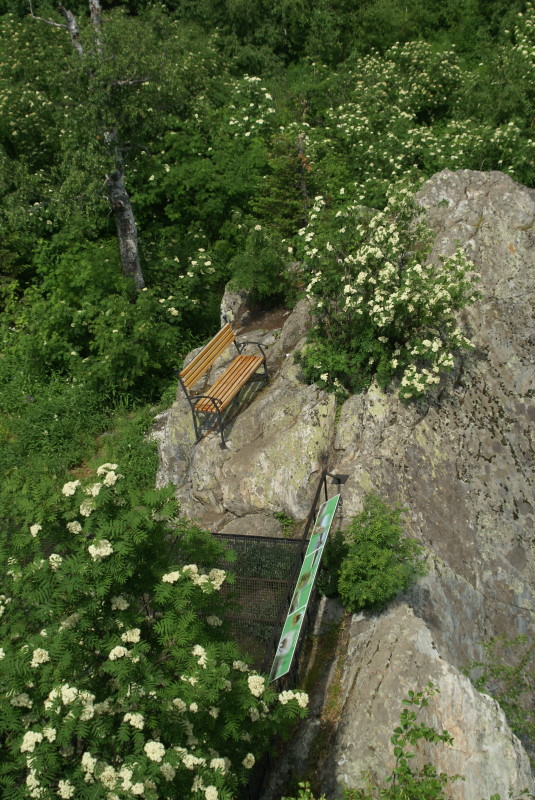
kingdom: Plantae
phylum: Tracheophyta
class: Magnoliopsida
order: Rosales
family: Rosaceae
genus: Sorbus
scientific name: Sorbus aucuparia
